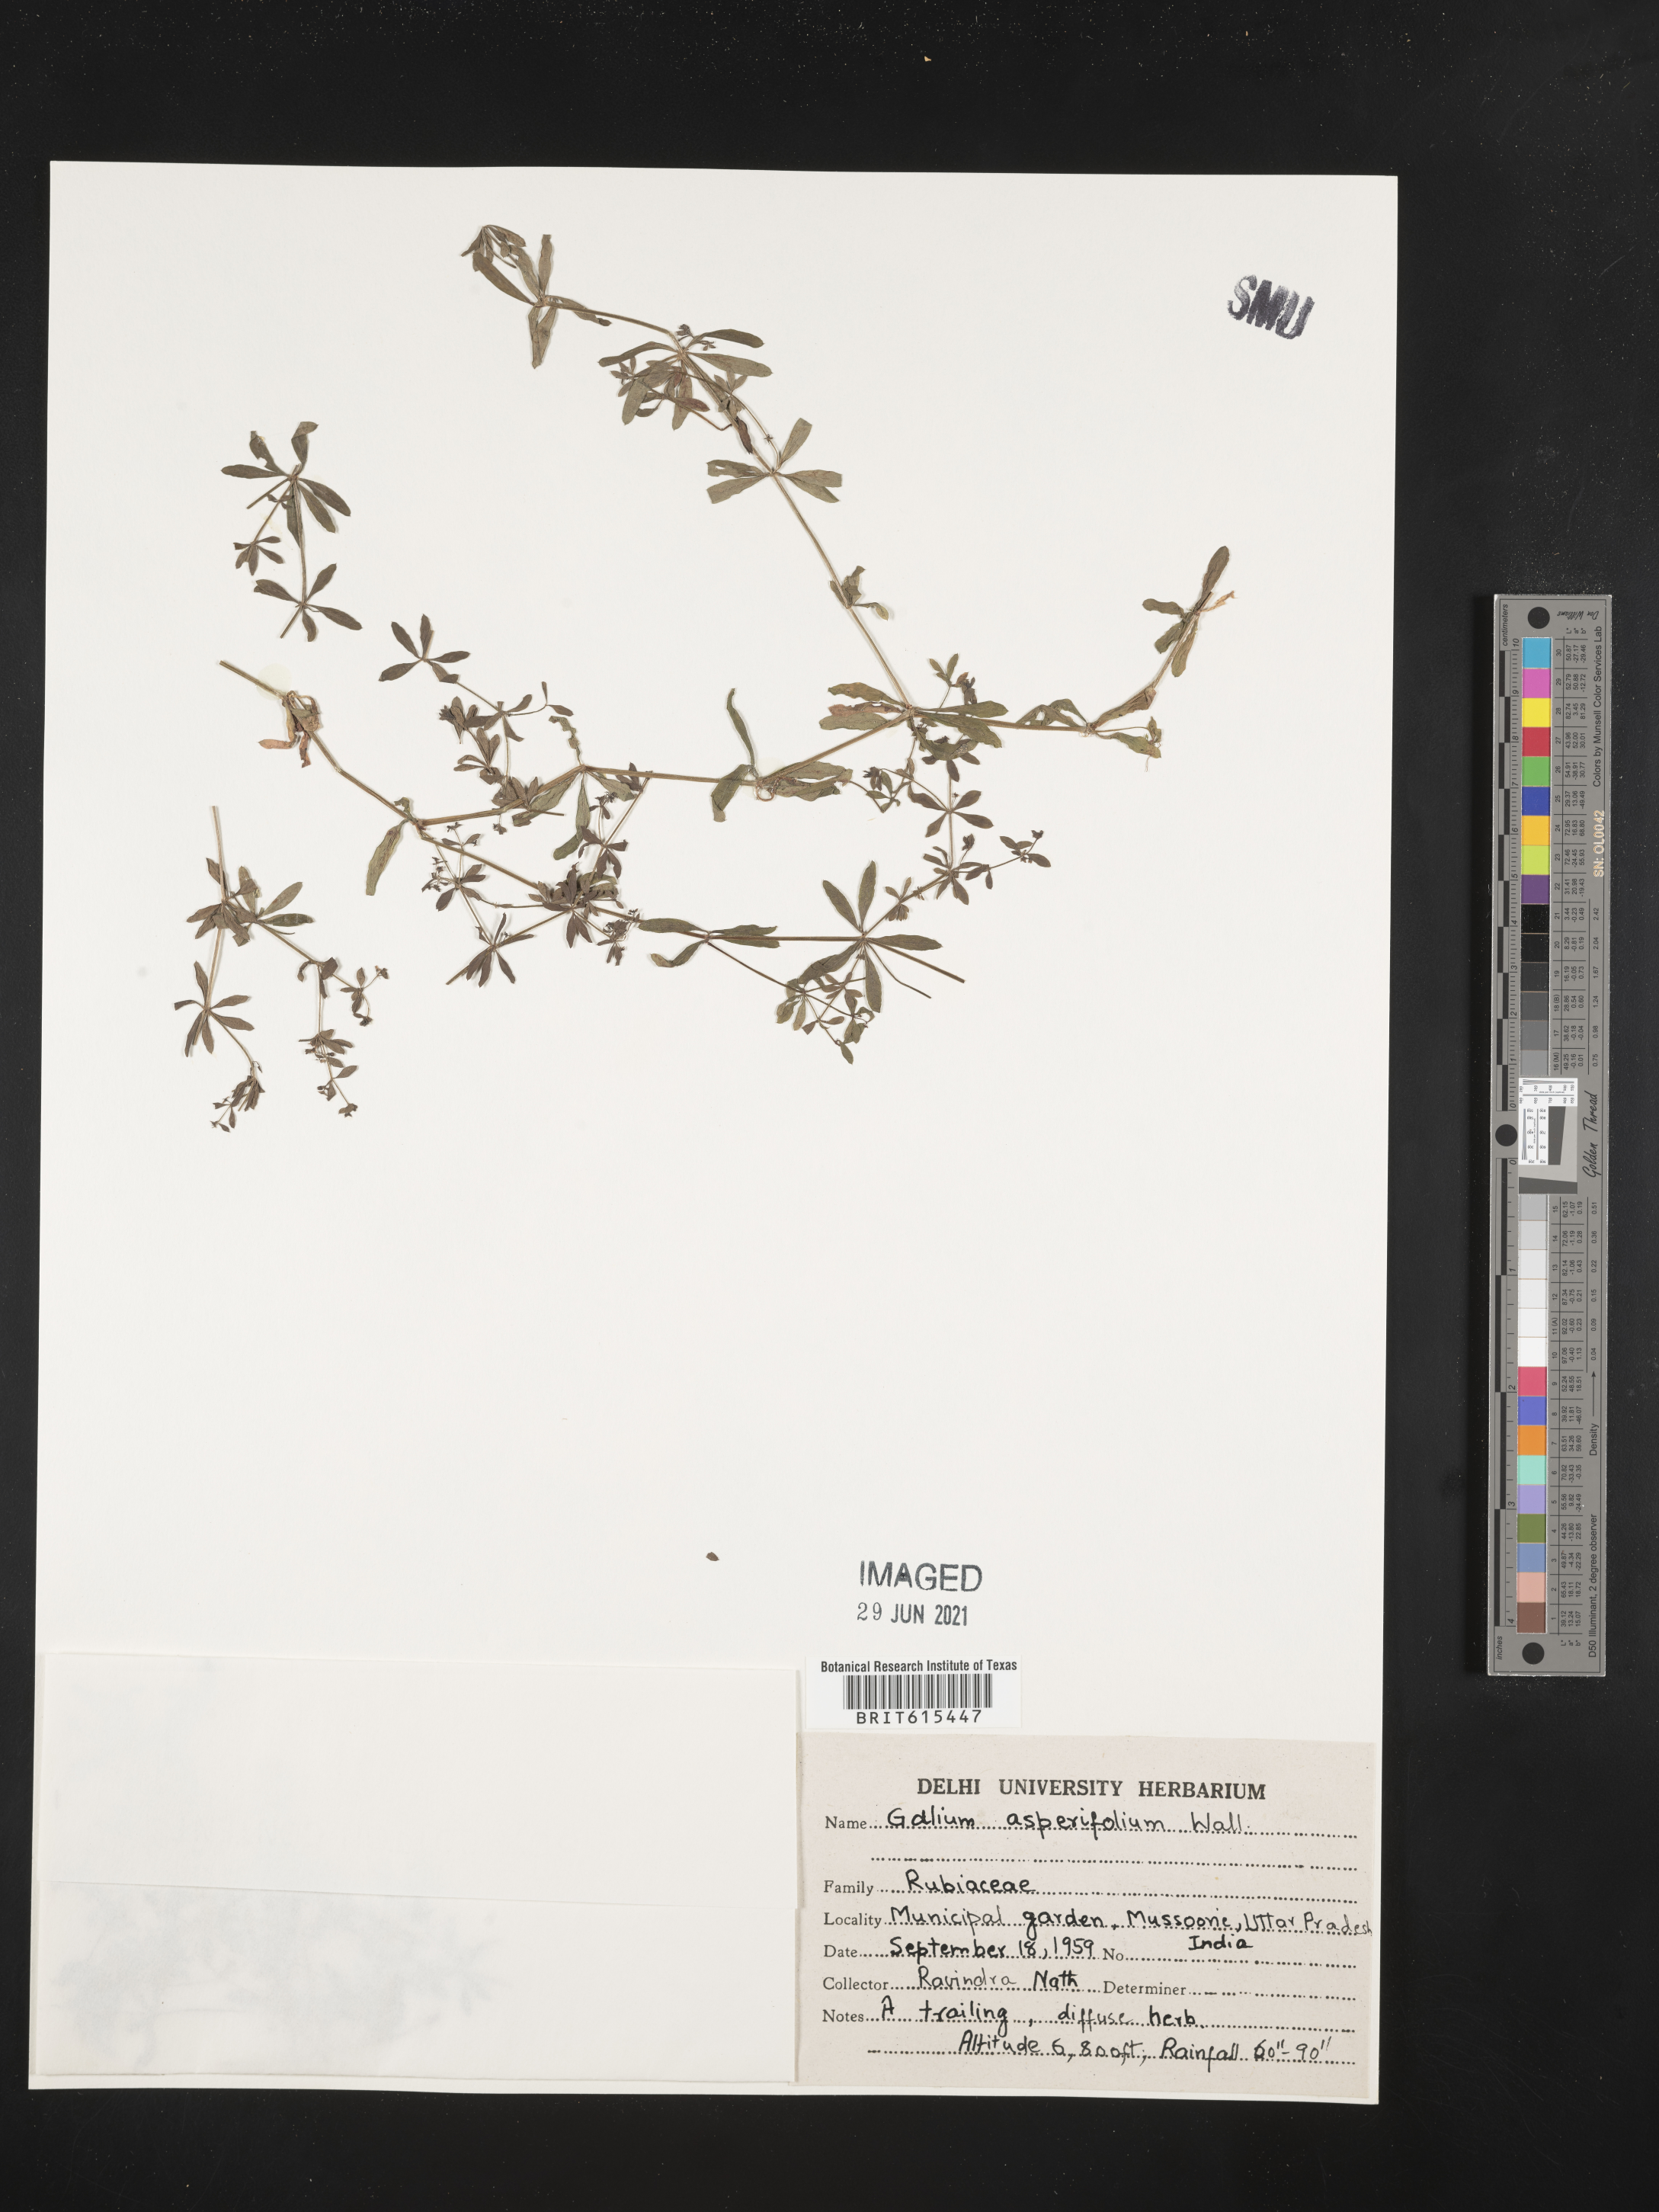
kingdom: Plantae
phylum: Tracheophyta
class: Magnoliopsida
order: Gentianales
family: Rubiaceae
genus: Galium
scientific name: Galium asperifolium
